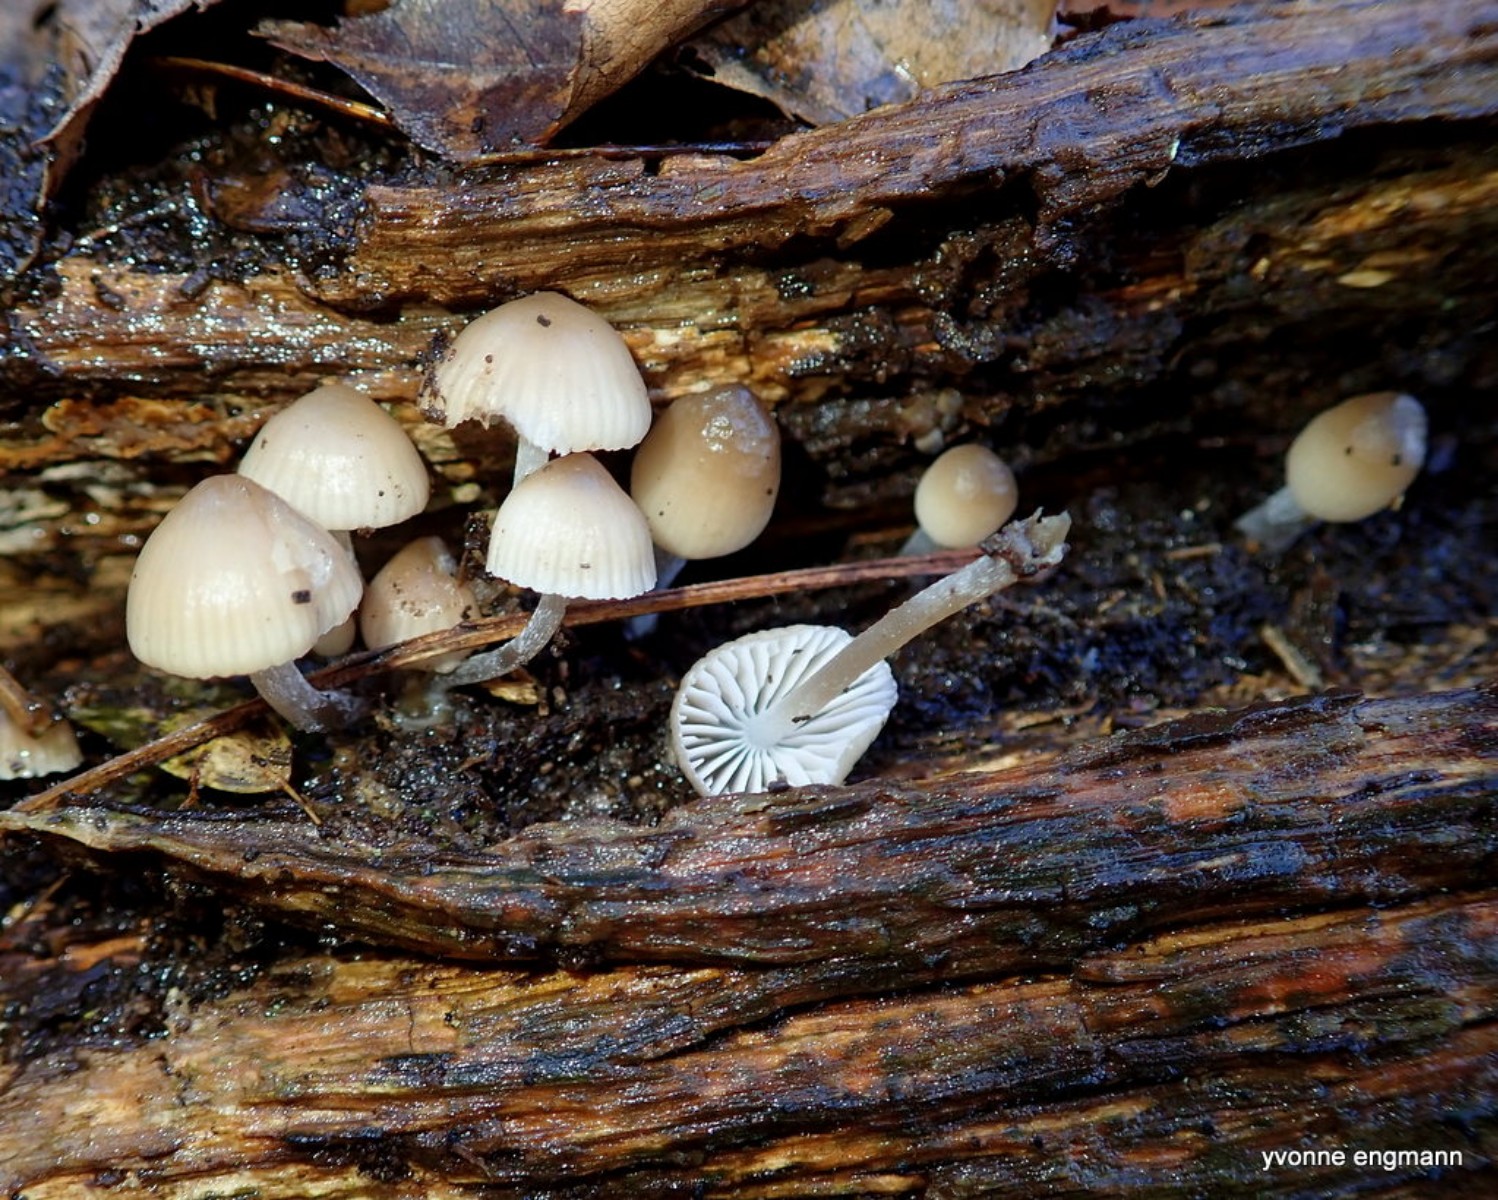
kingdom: Fungi
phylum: Basidiomycota
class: Agaricomycetes
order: Agaricales
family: Mycenaceae
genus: Mycena
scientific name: Mycena tintinnabulum
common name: vinter-huesvamp
